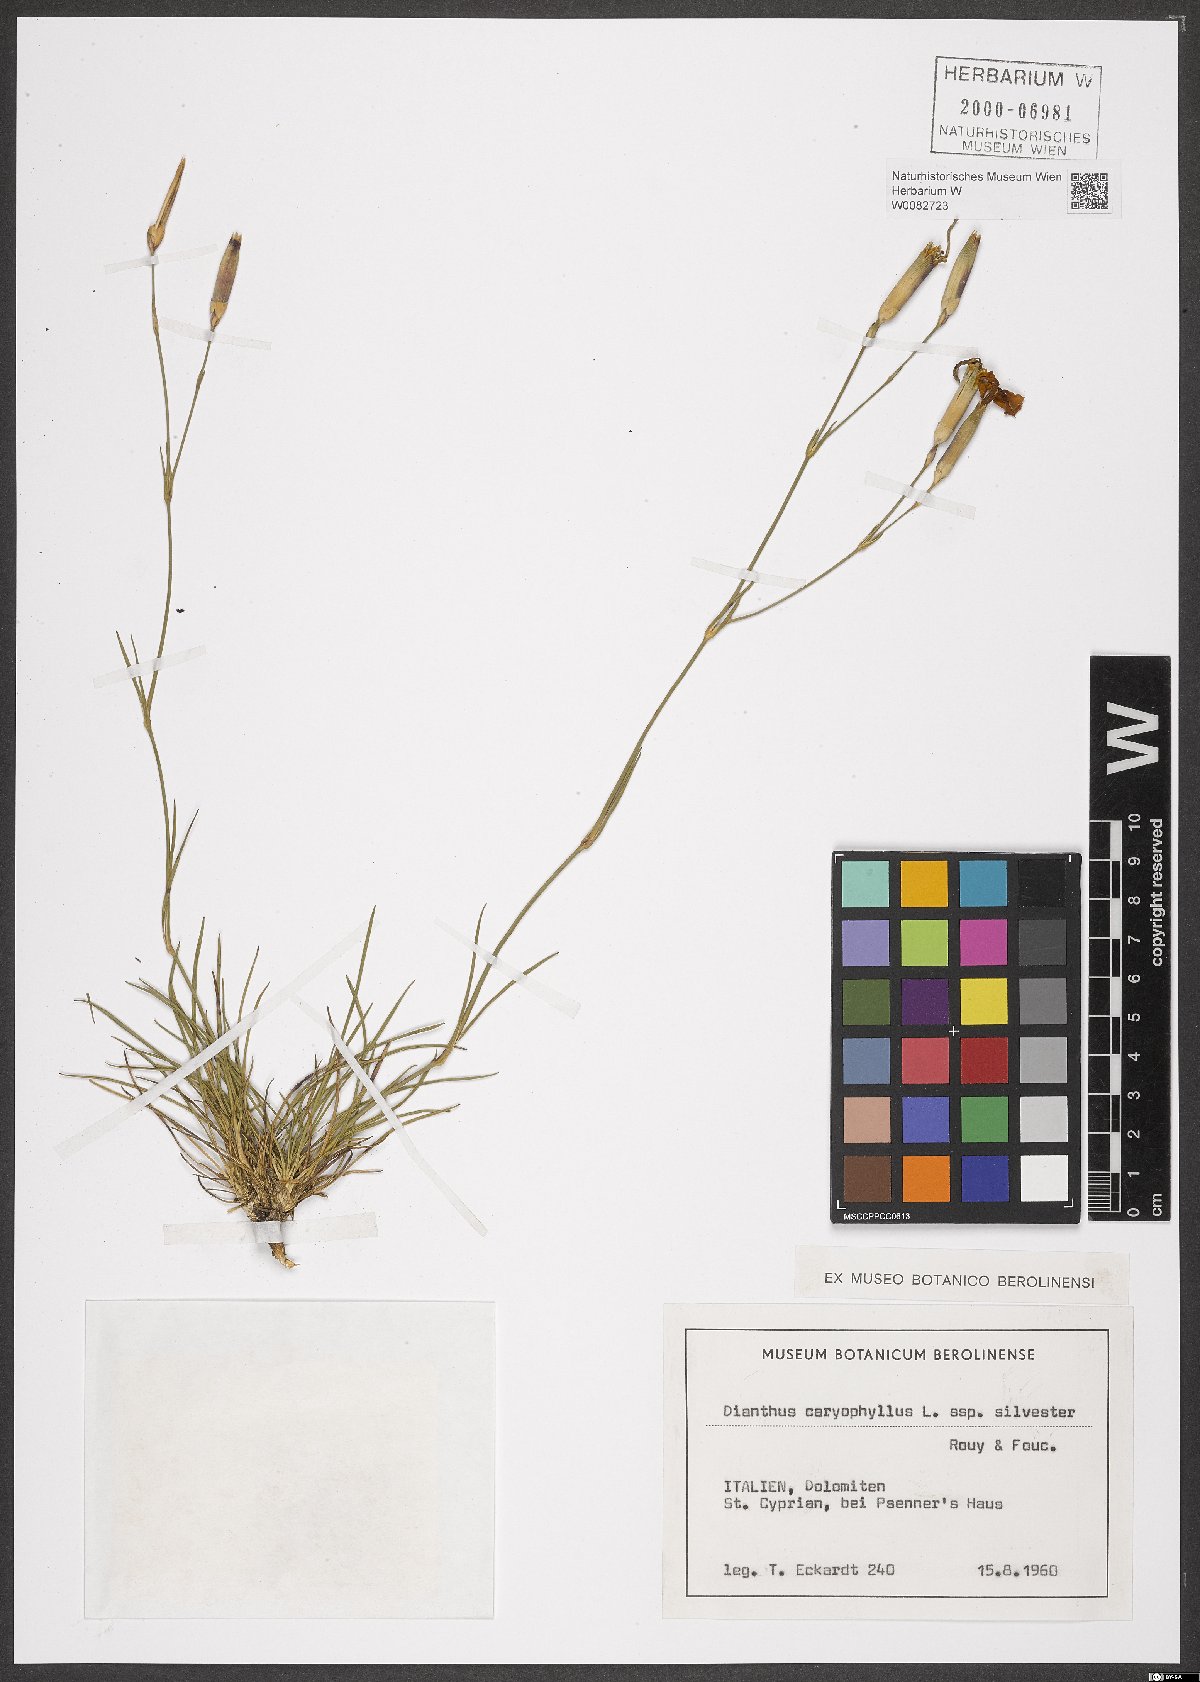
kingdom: Plantae
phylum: Tracheophyta
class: Magnoliopsida
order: Caryophyllales
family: Caryophyllaceae
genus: Dianthus
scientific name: Dianthus caryophyllus
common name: Clove pink
